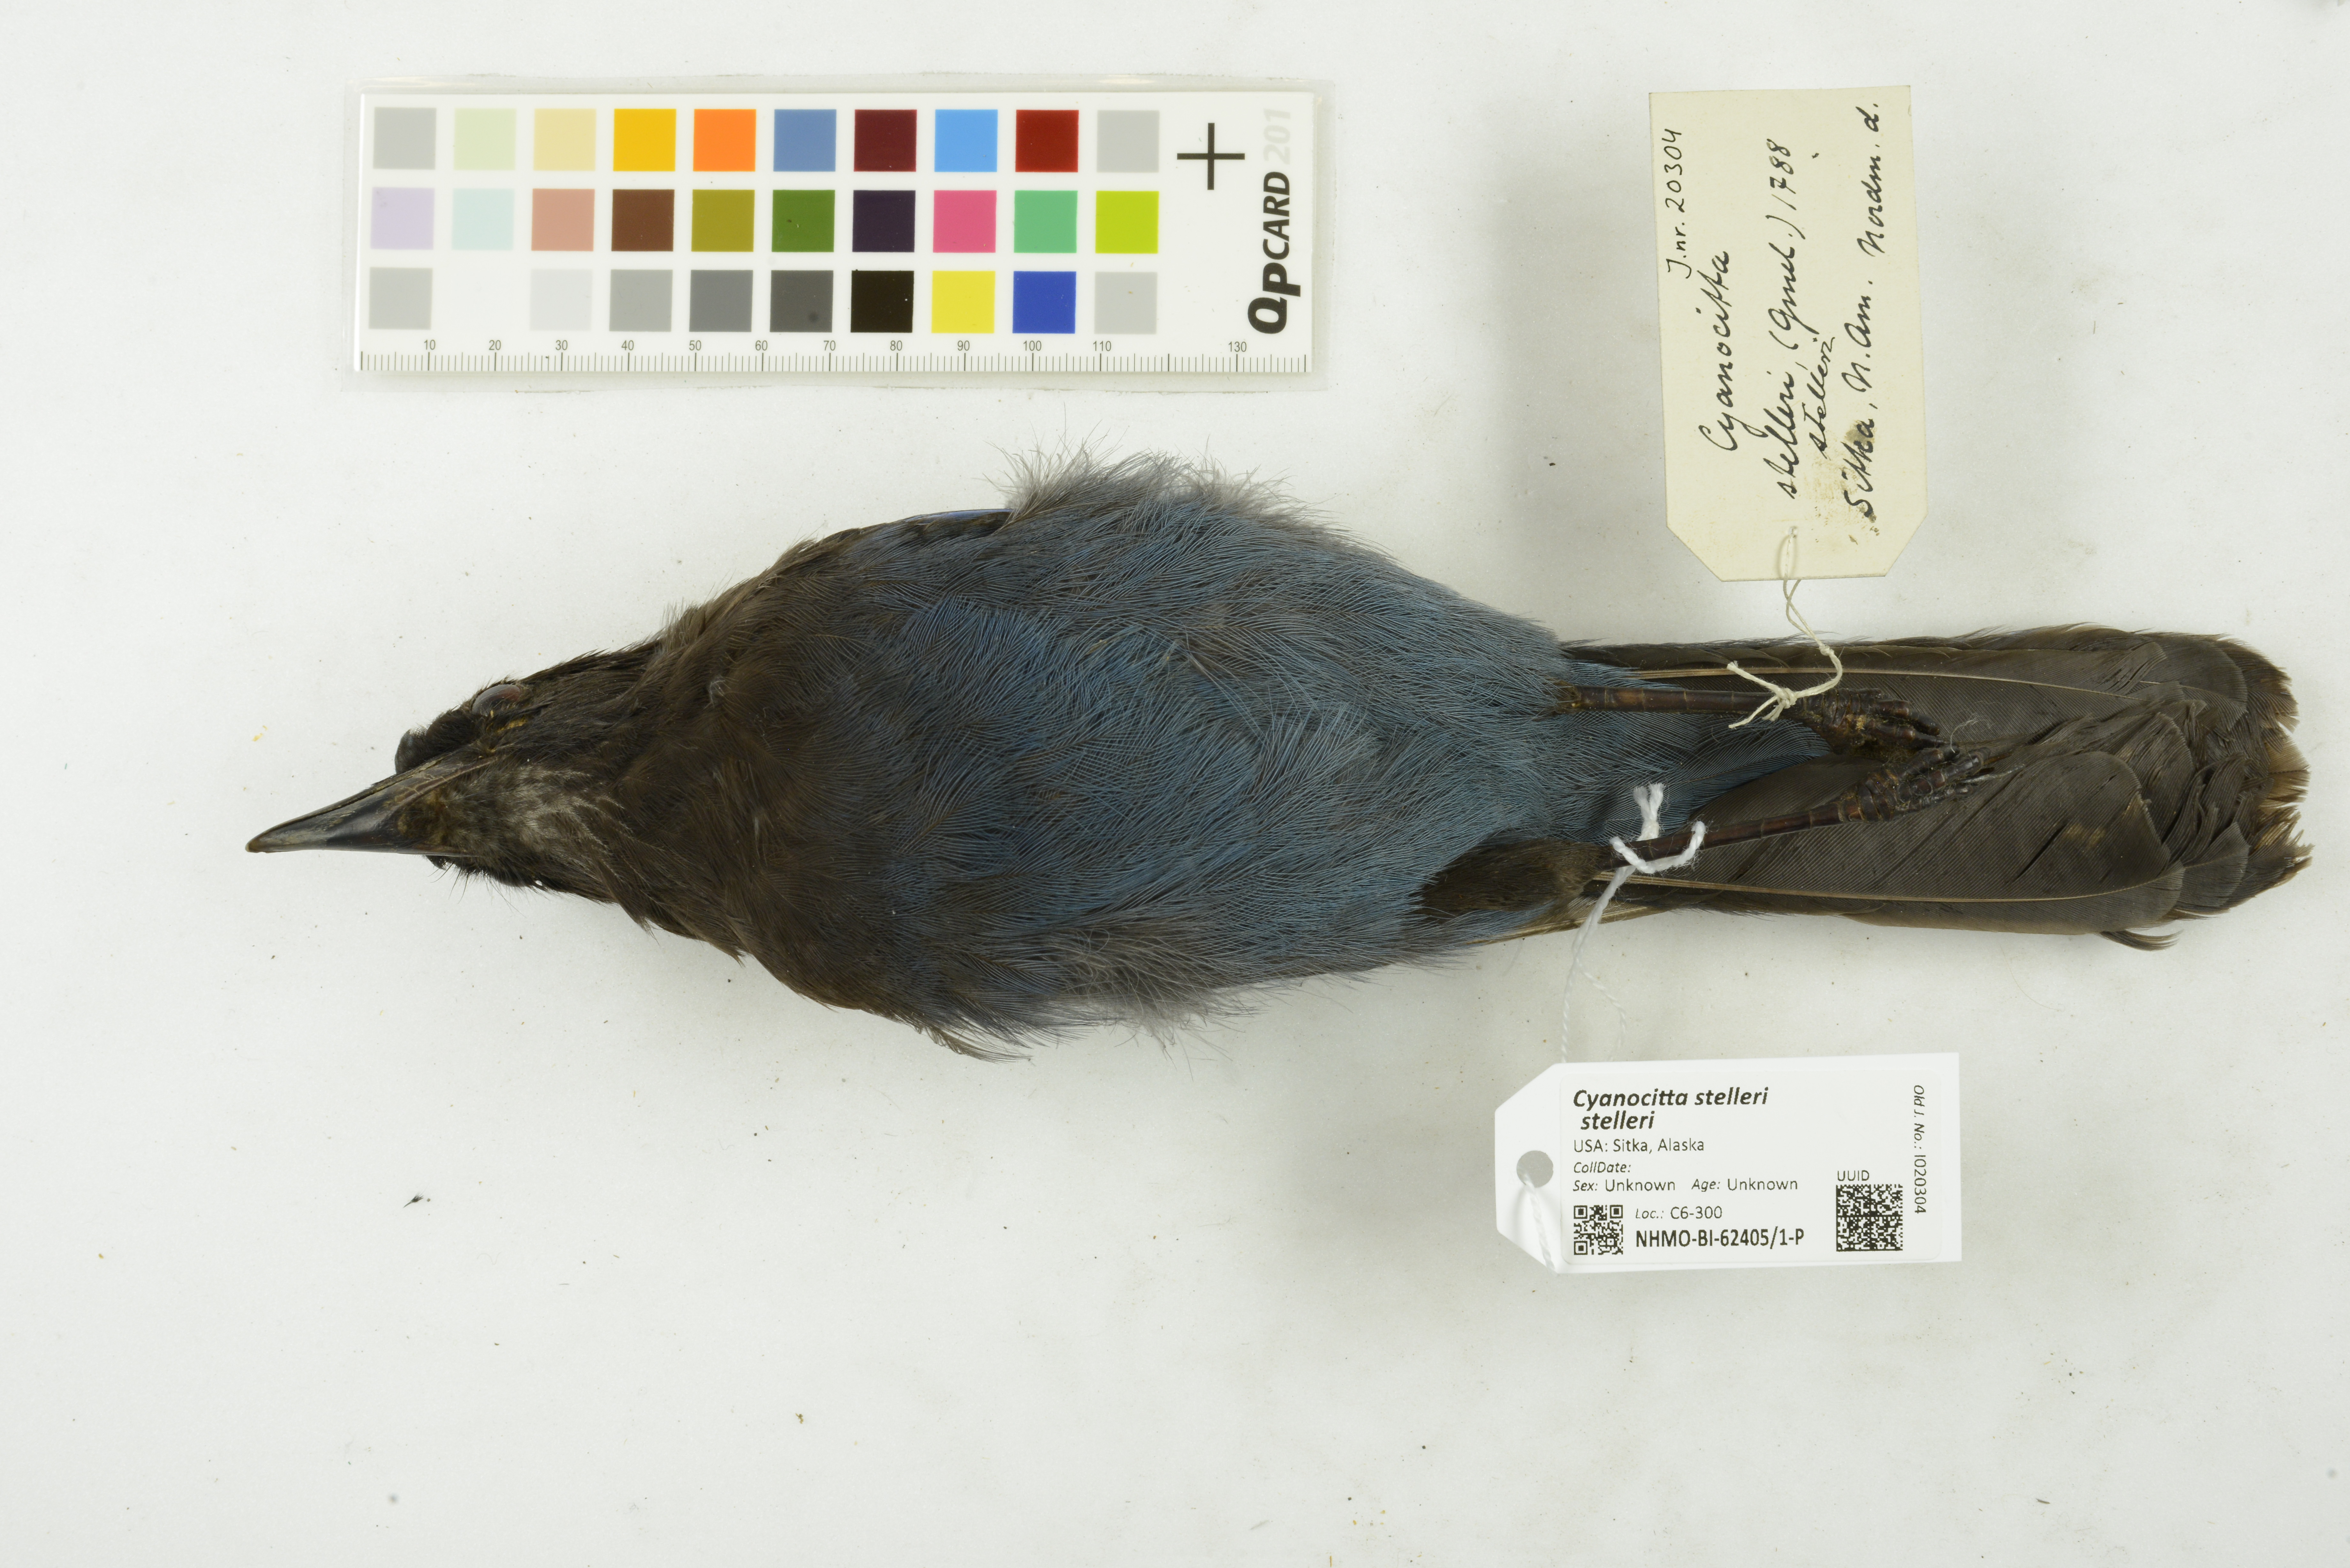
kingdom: Animalia
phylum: Chordata
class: Aves
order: Passeriformes
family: Corvidae
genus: Cyanocitta
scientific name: Cyanocitta stelleri
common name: Steller's jay
